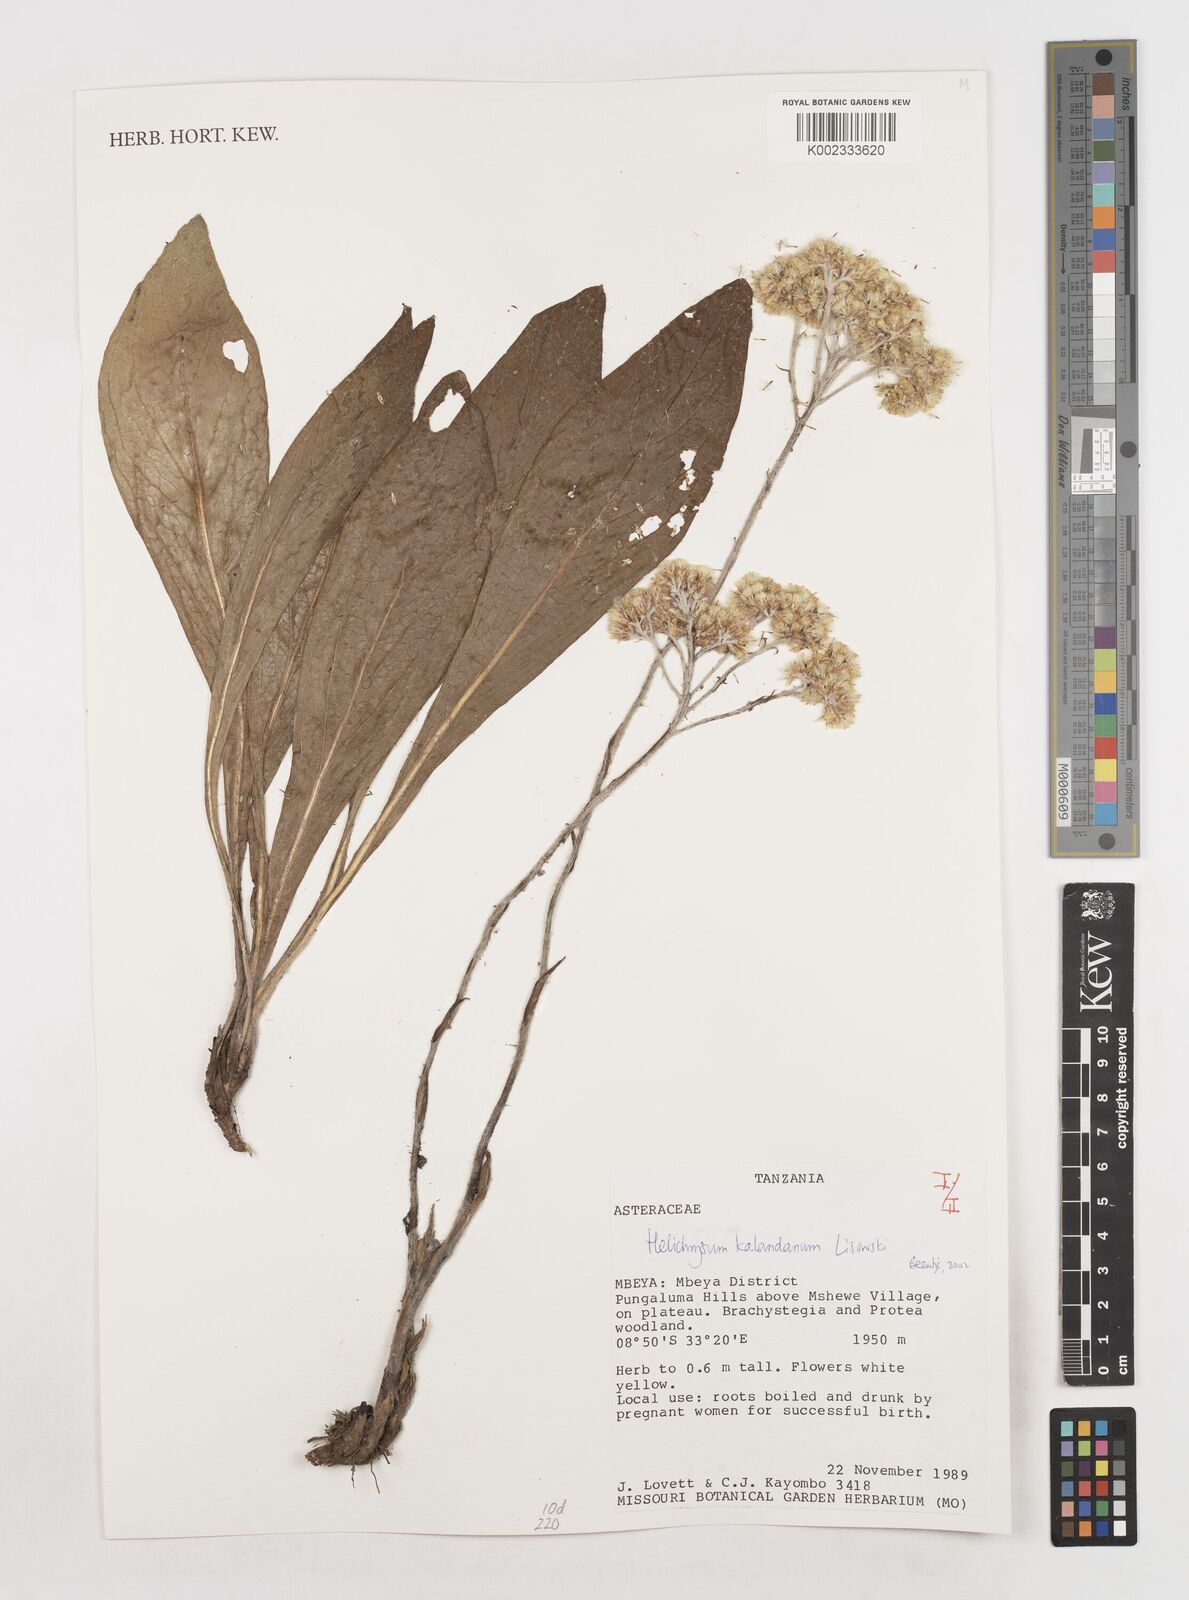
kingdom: Plantae
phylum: Tracheophyta
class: Magnoliopsida
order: Asterales
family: Asteraceae
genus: Helichrysum
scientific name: Helichrysum kalandanum
